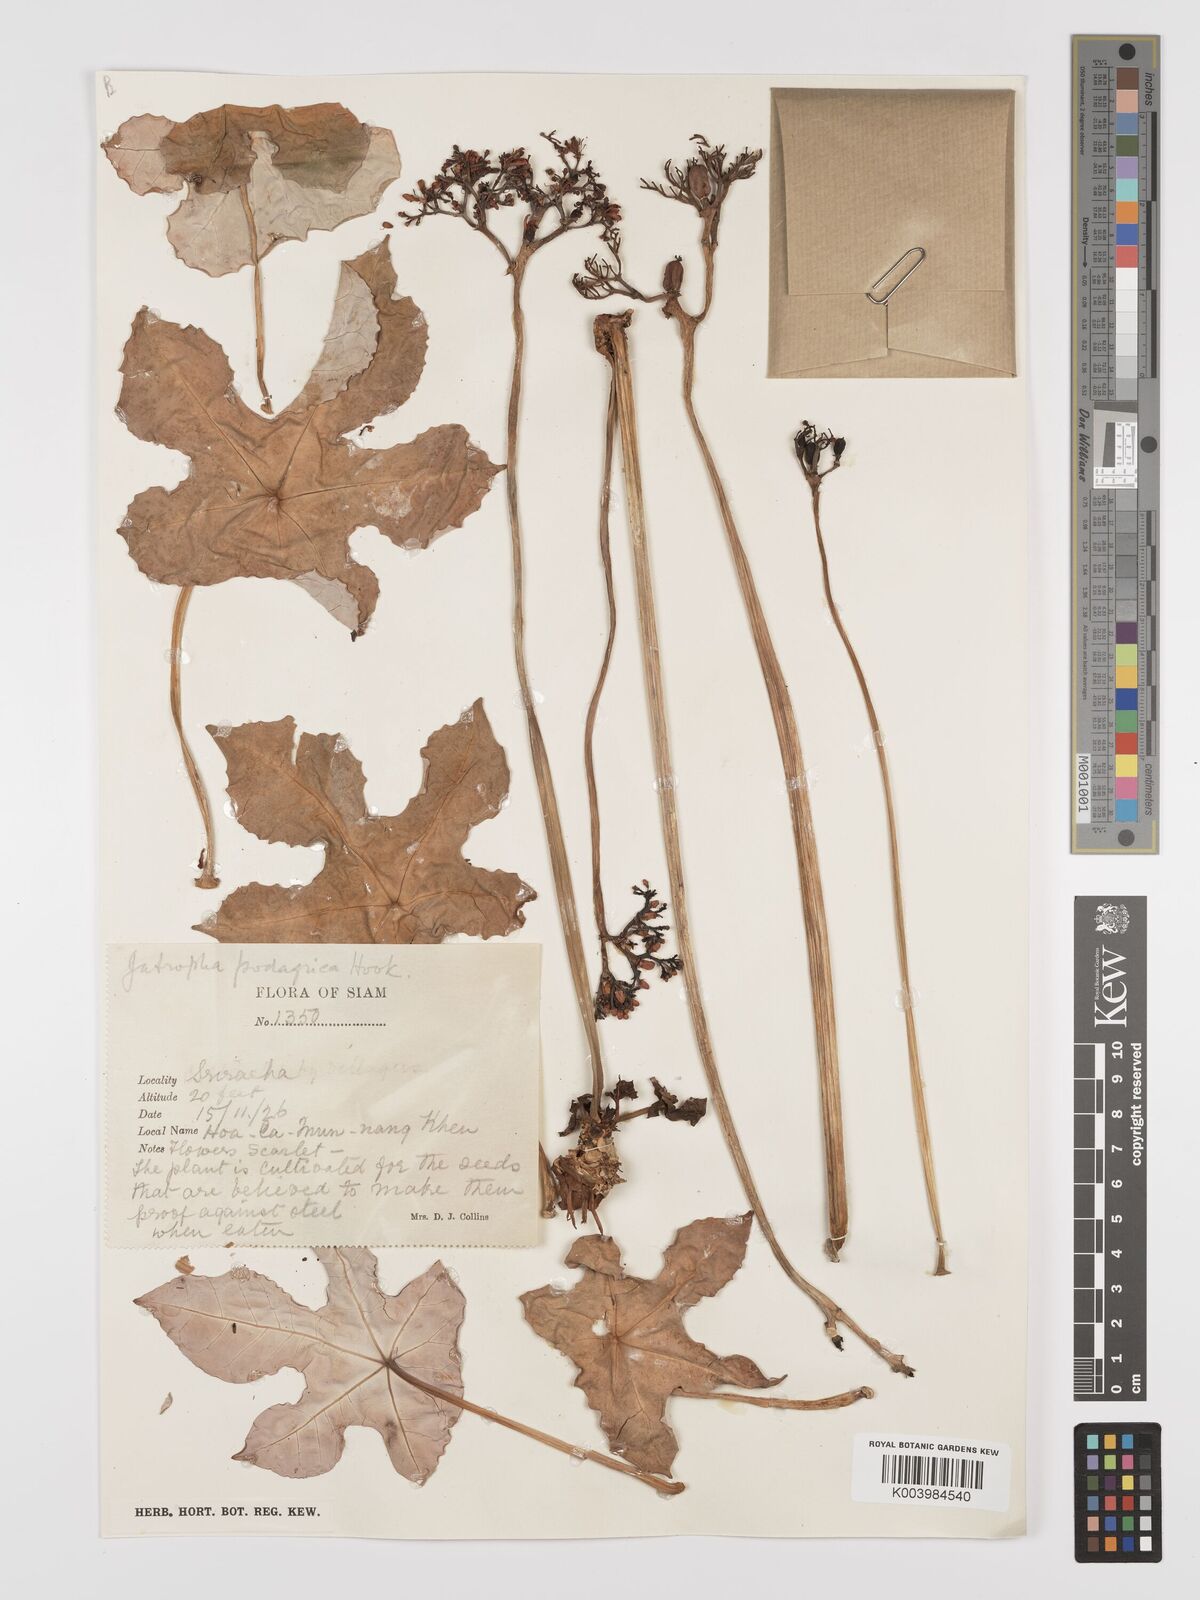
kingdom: Plantae
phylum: Tracheophyta
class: Magnoliopsida
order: Malpighiales
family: Euphorbiaceae
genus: Jatropha
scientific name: Jatropha podagrica
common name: Gout stalk
